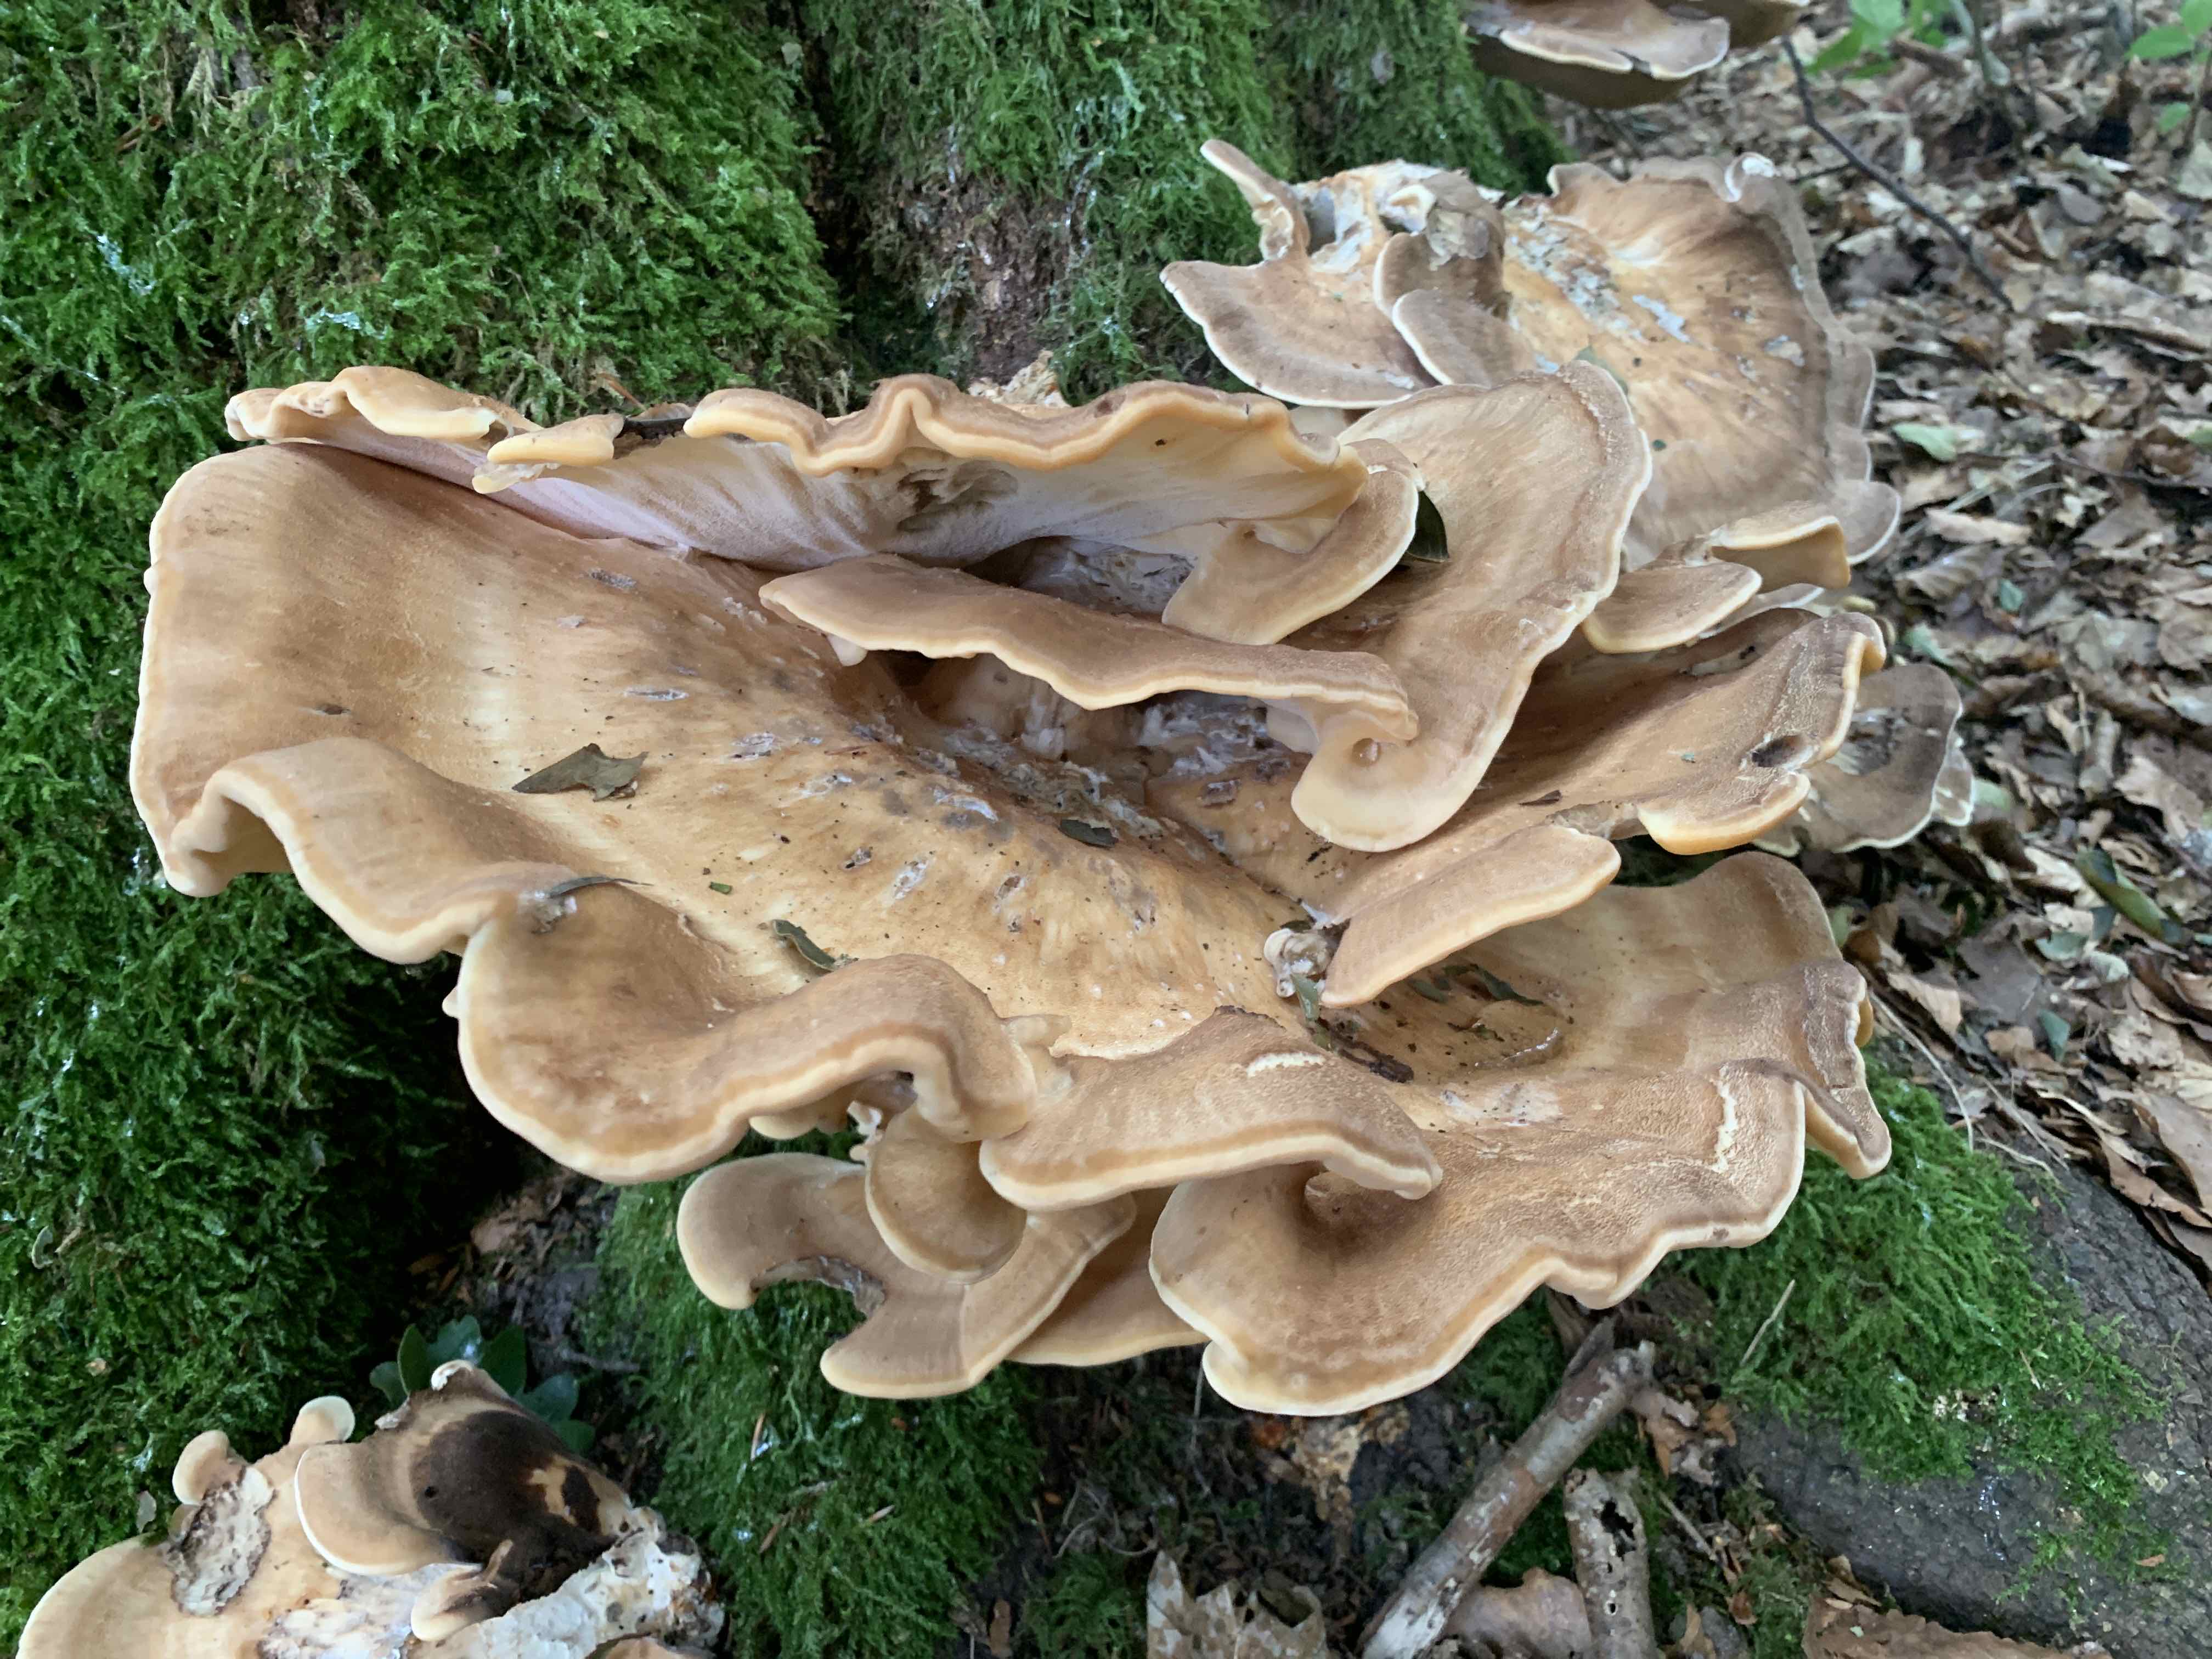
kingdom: Fungi
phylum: Basidiomycota
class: Agaricomycetes
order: Polyporales
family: Meripilaceae
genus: Meripilus
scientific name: Meripilus giganteus
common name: kæmpeporesvamp
